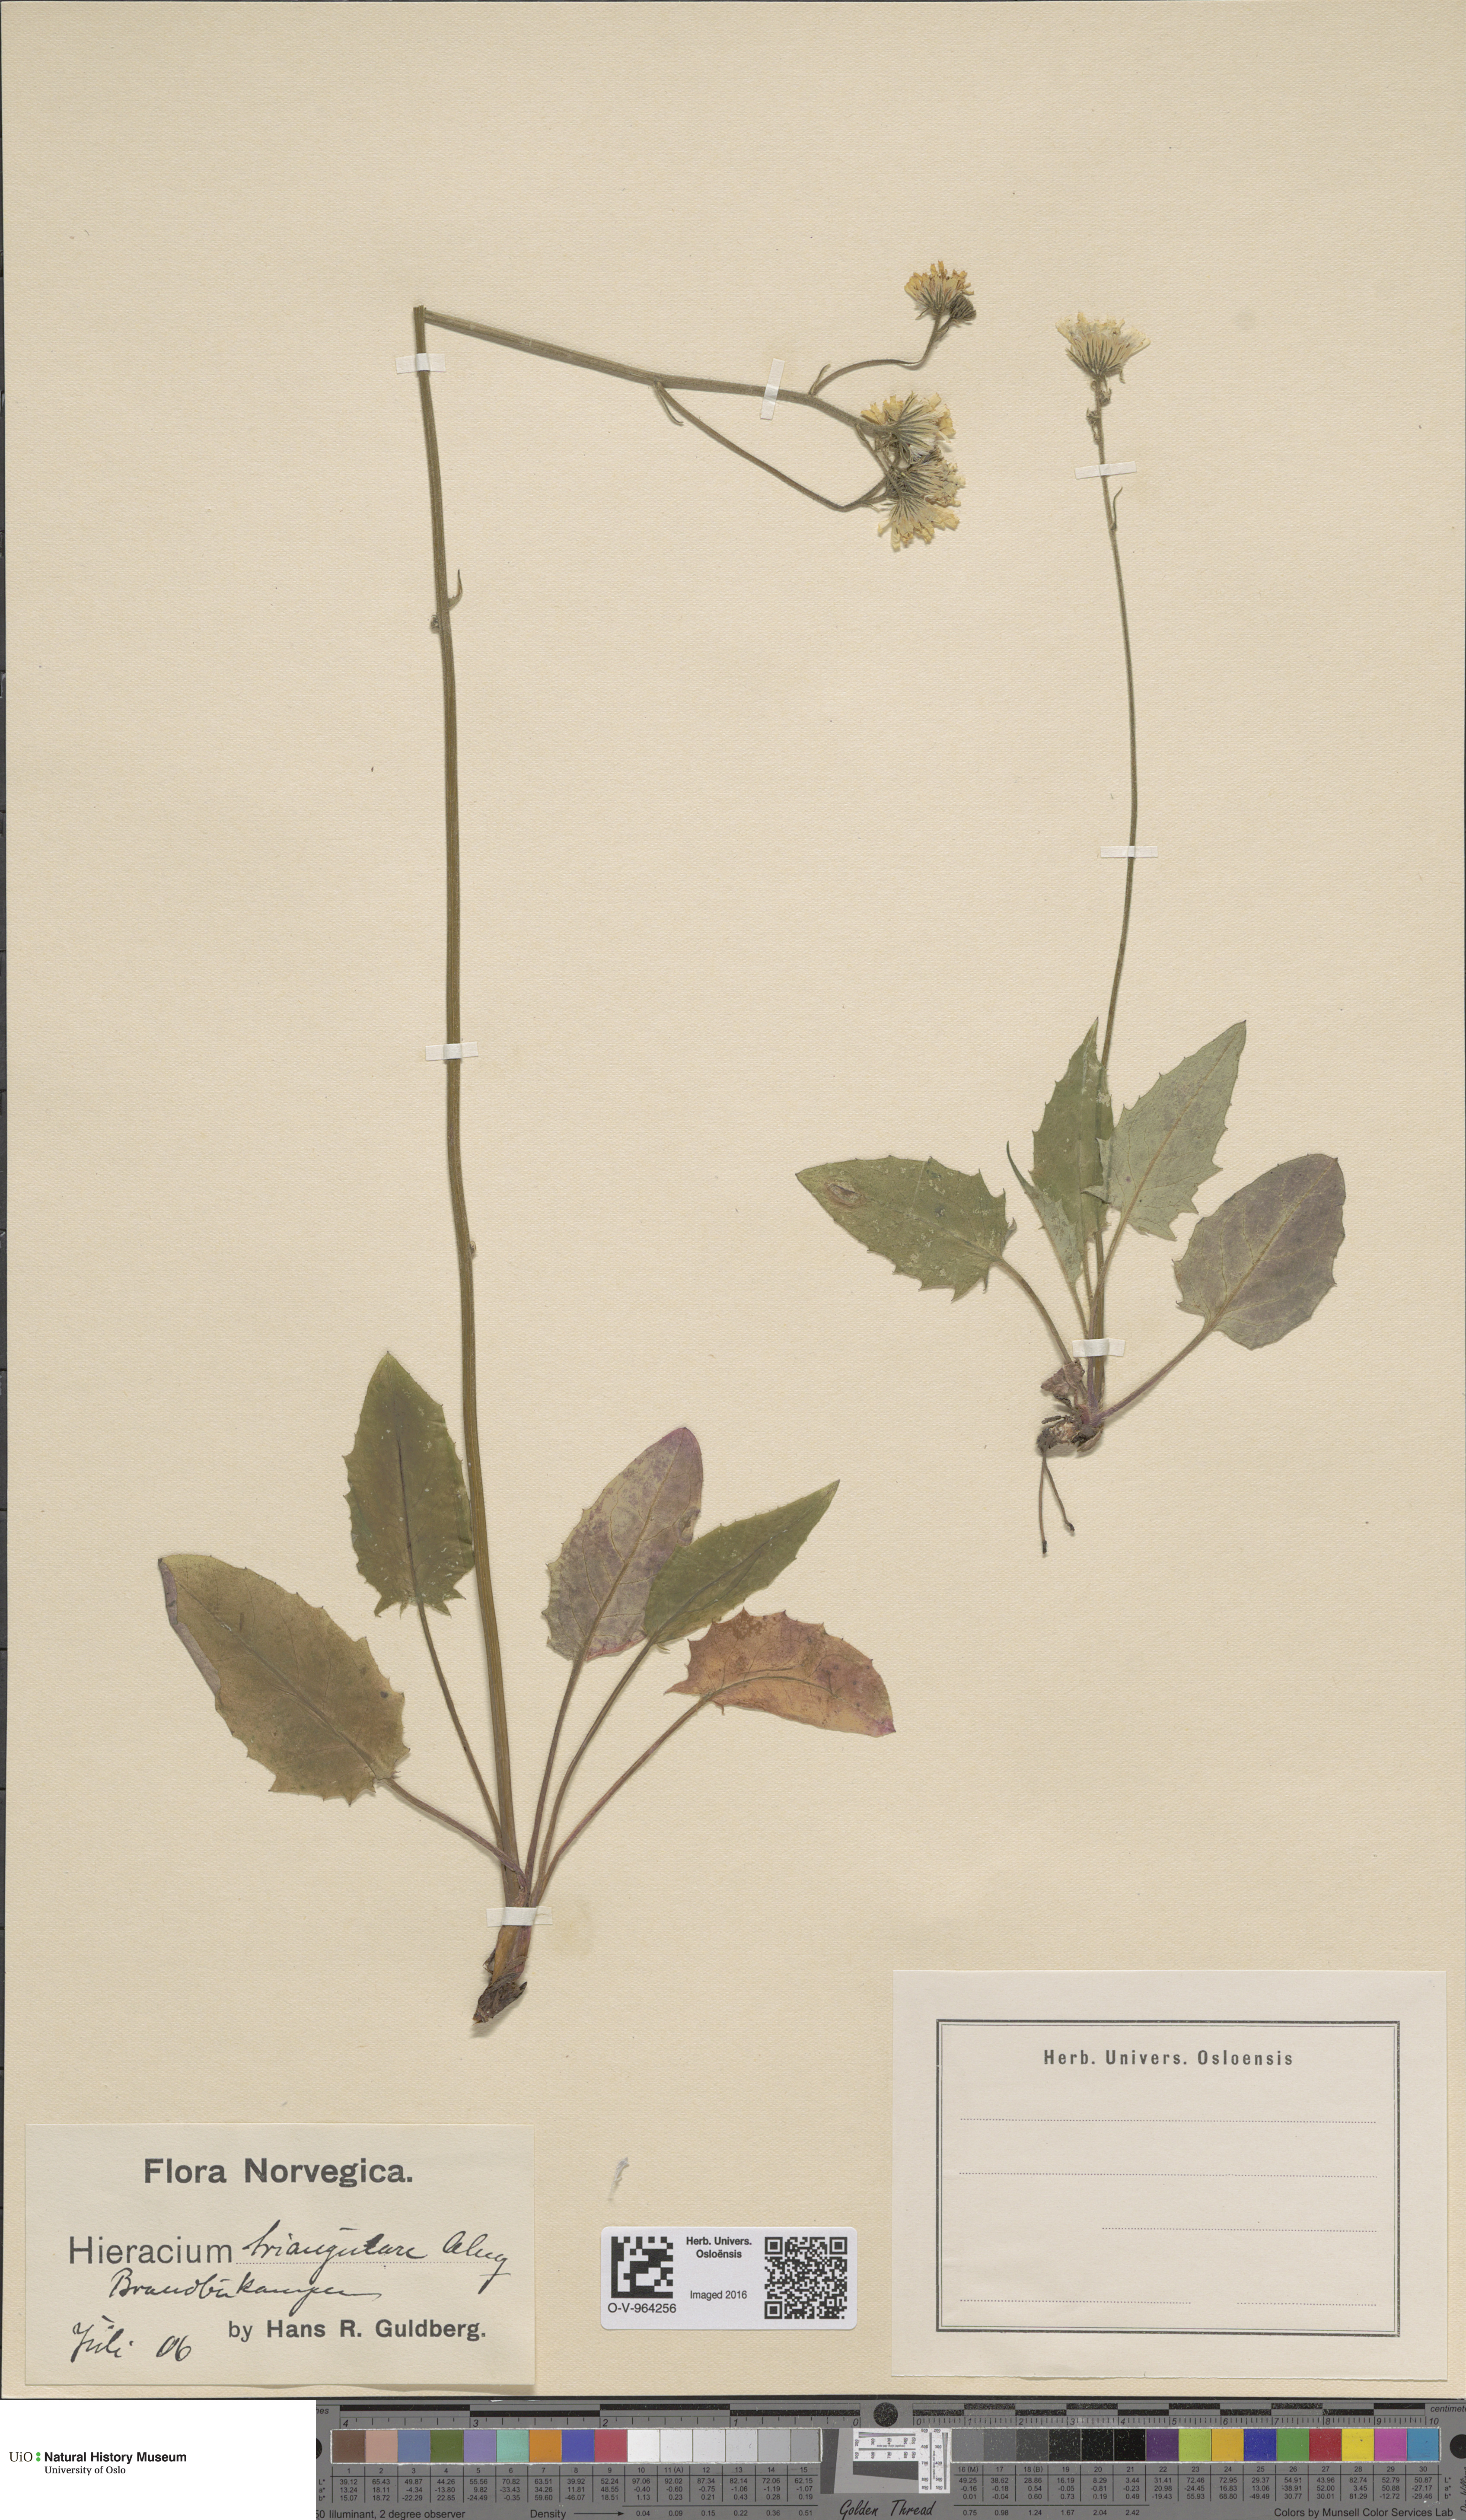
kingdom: Plantae
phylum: Tracheophyta
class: Magnoliopsida
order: Asterales
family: Asteraceae
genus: Hieracium
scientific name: Hieracium triangulare
